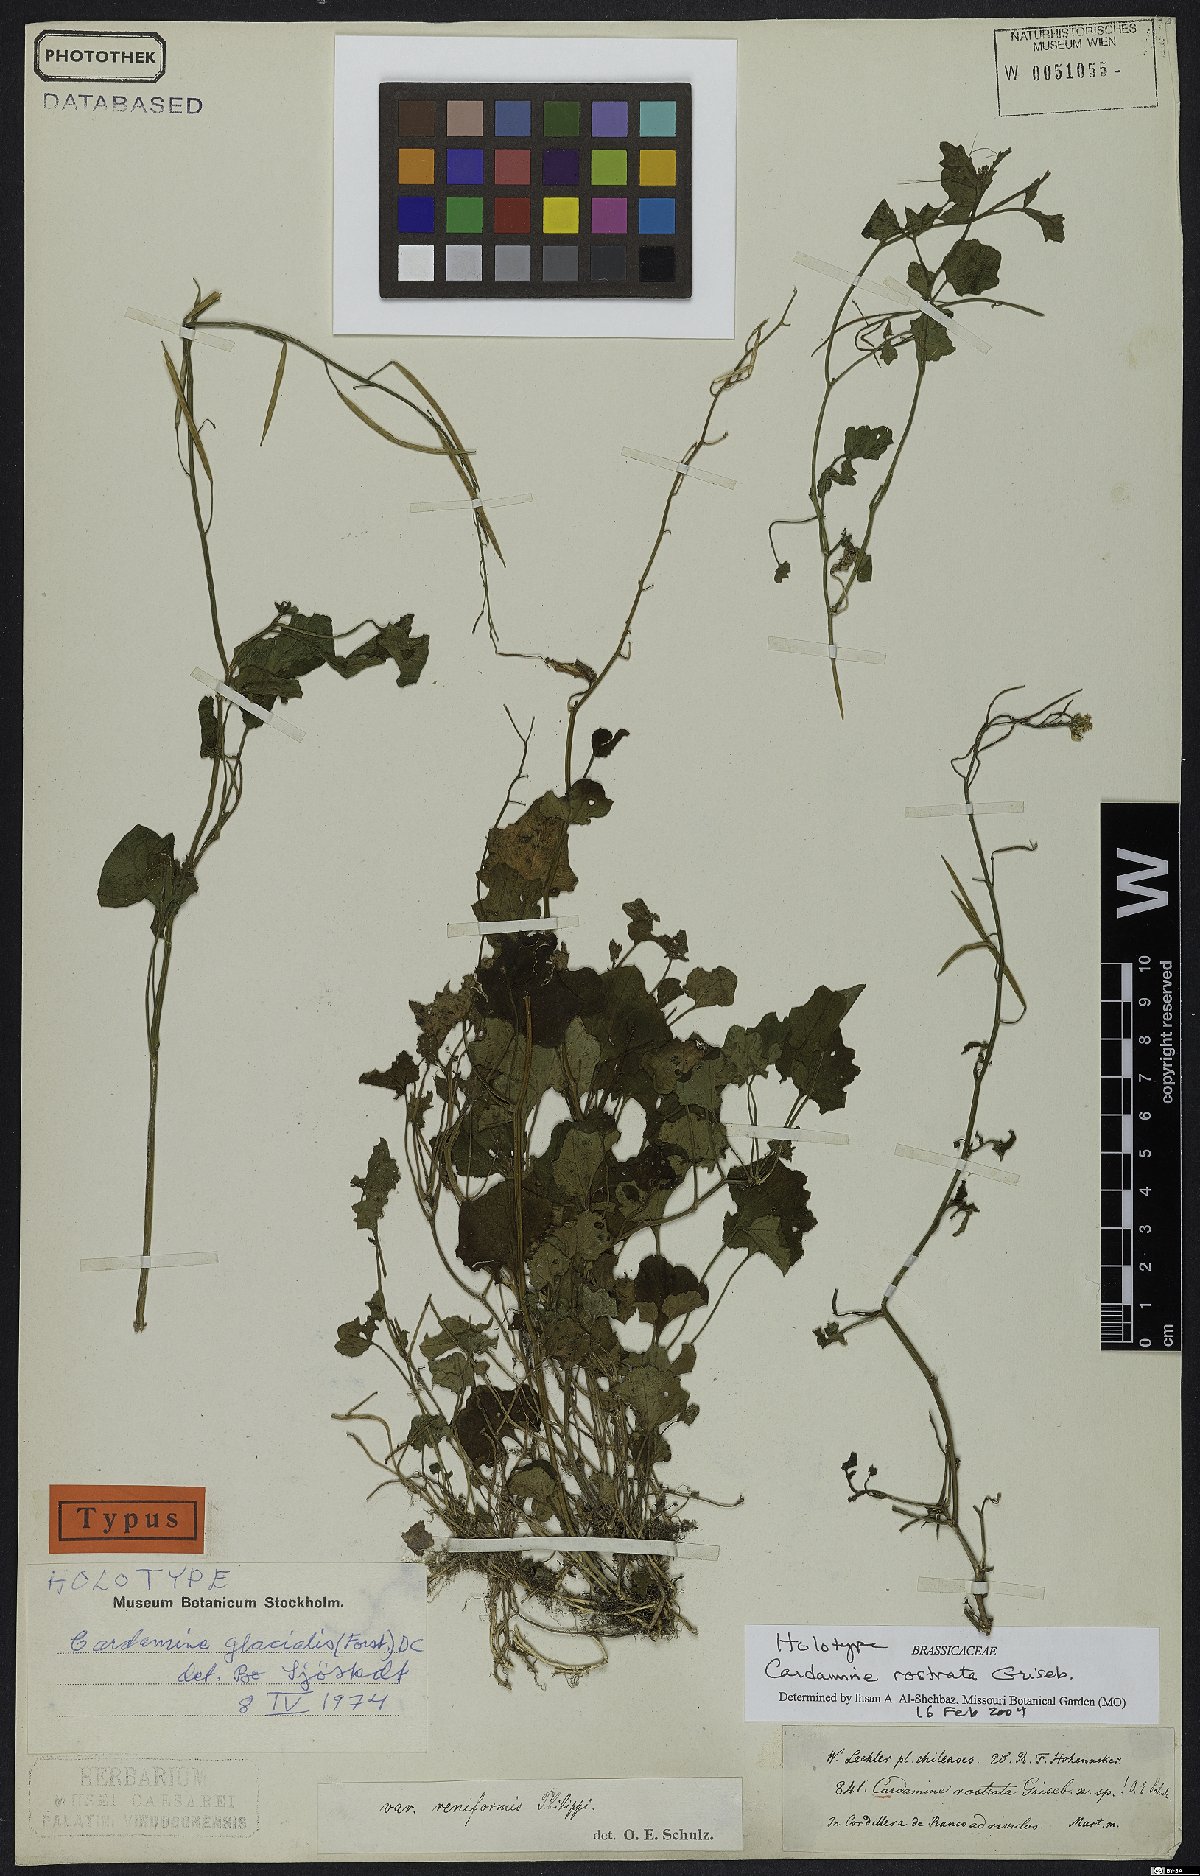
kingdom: Plantae
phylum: Tracheophyta
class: Magnoliopsida
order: Brassicales
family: Brassicaceae
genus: Cardamine
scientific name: Cardamine rostrata
